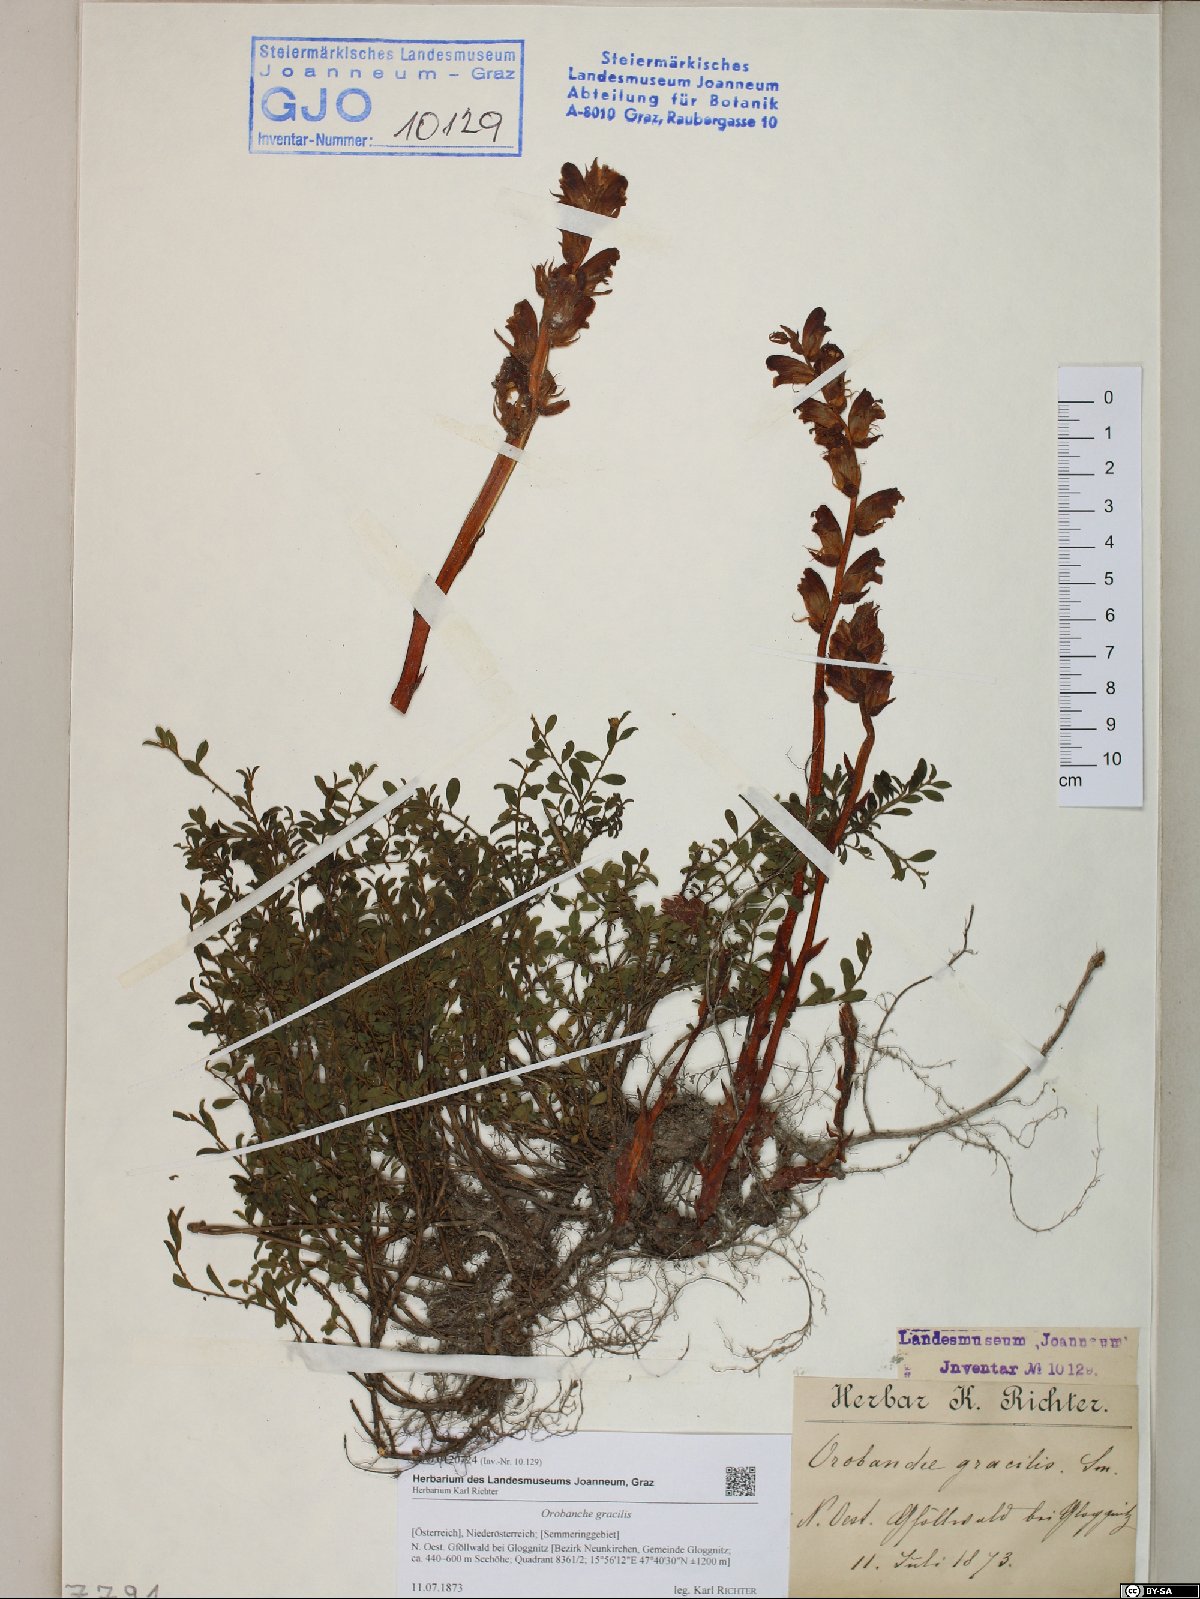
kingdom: Plantae
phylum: Tracheophyta
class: Magnoliopsida
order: Lamiales
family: Orobanchaceae
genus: Orobanche
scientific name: Orobanche gracilis
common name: Slender broomrape
